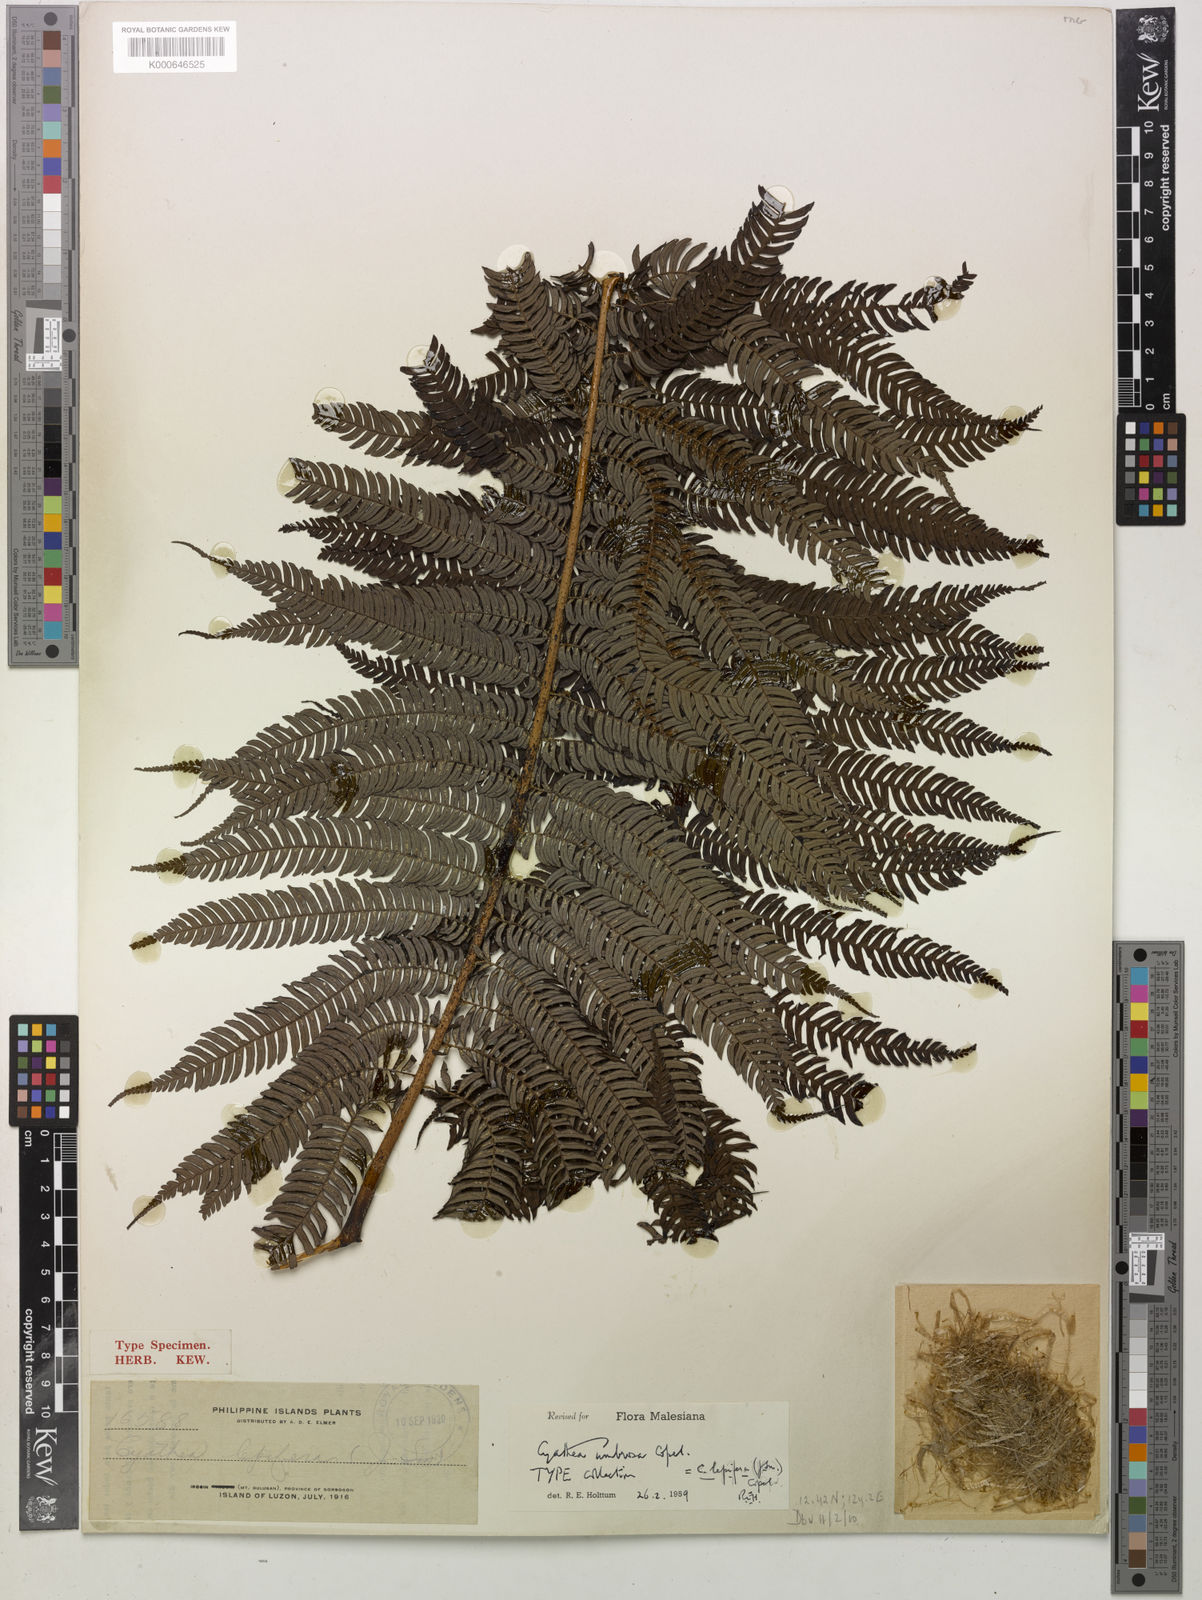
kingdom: Plantae
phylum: Tracheophyta
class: Polypodiopsida
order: Cyatheales
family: Cyatheaceae
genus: Alsophila
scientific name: Alsophila lepifera
